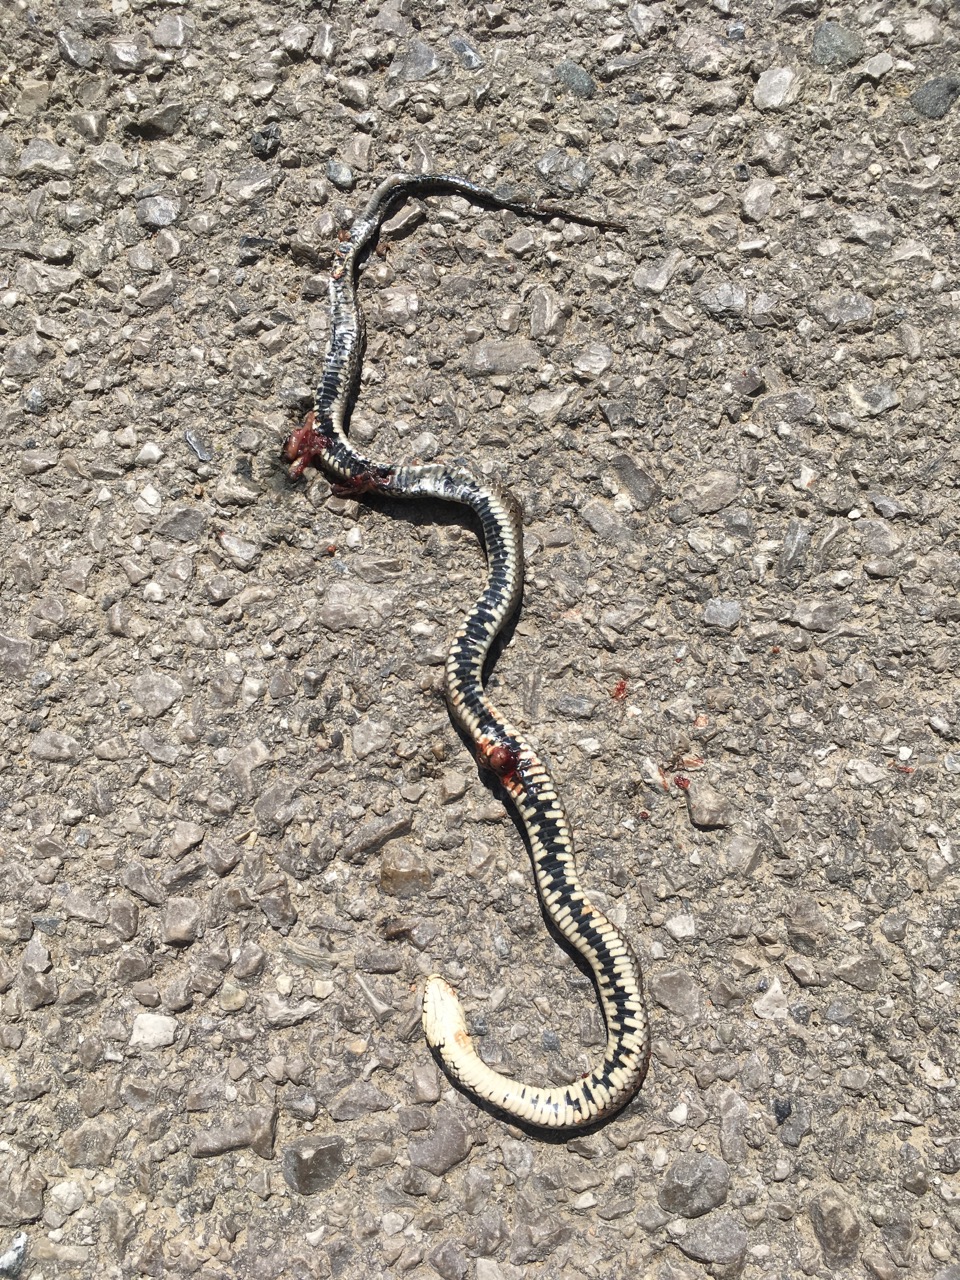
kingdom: Animalia
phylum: Chordata
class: Squamata
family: Colubridae
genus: Natrix
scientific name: Natrix natrix
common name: Grass snake
